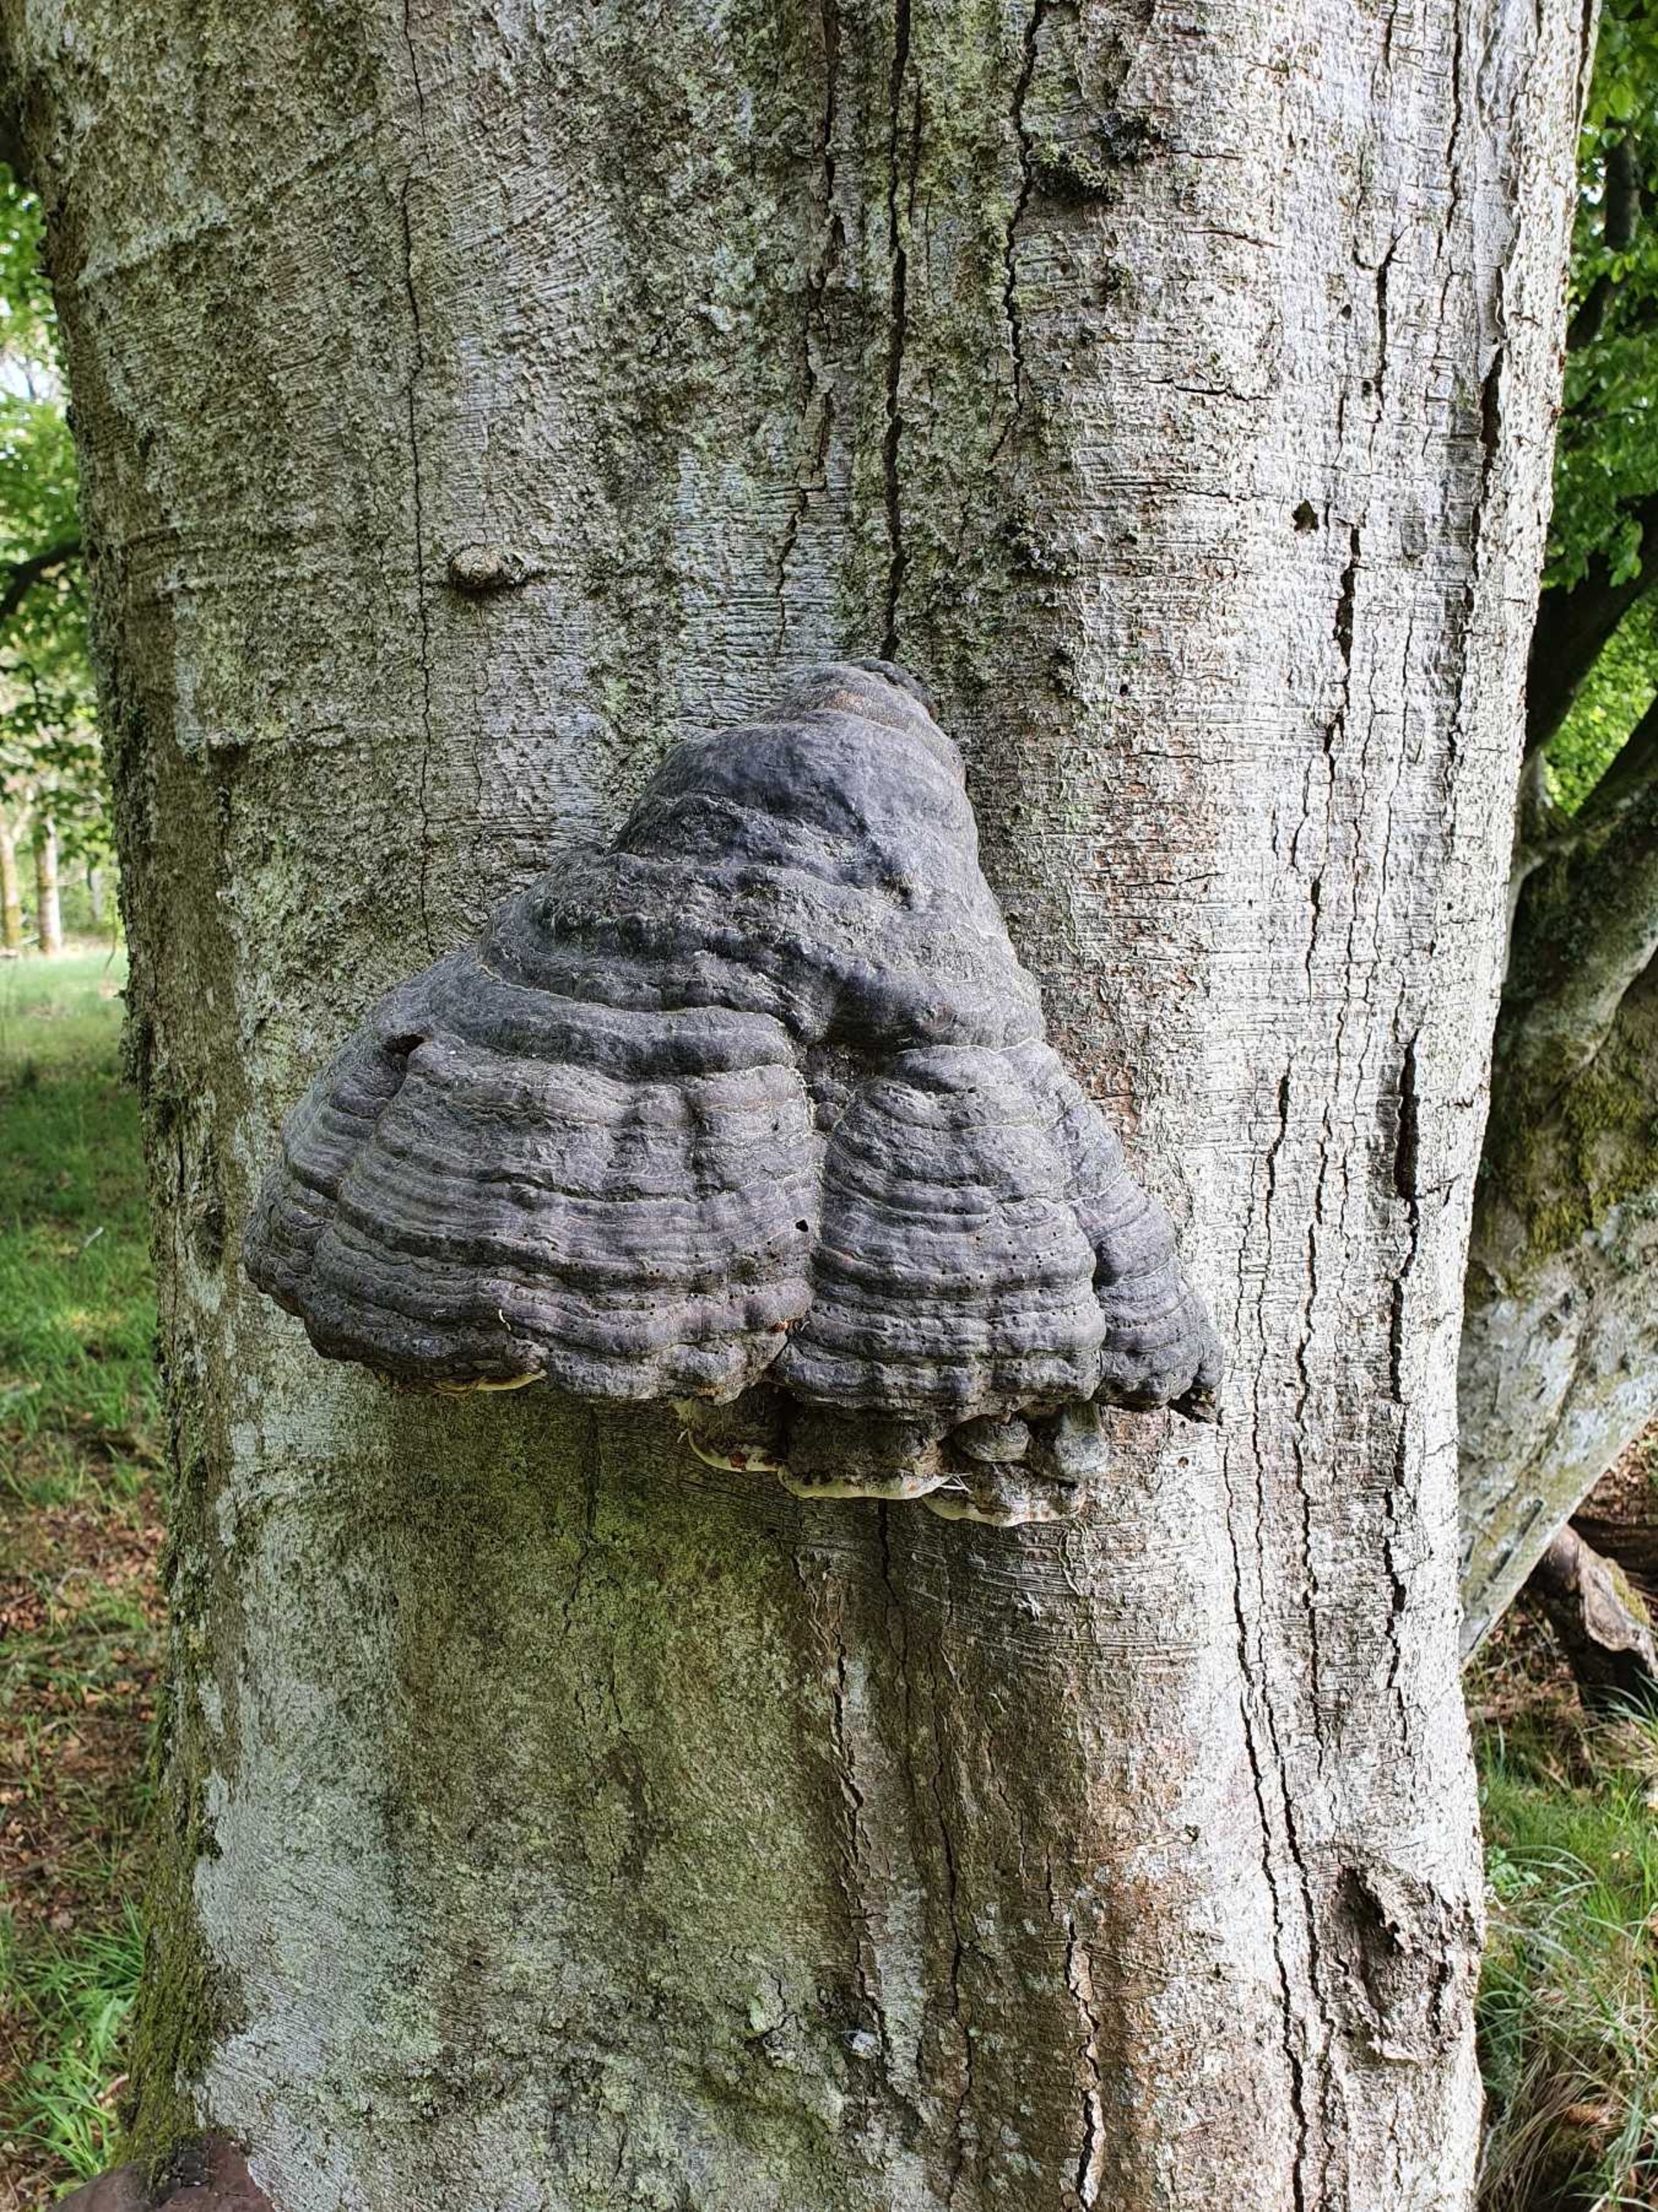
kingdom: Fungi
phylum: Basidiomycota
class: Agaricomycetes
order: Polyporales
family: Polyporaceae
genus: Fomes
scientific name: Fomes fomentarius
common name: Tøndersvamp
